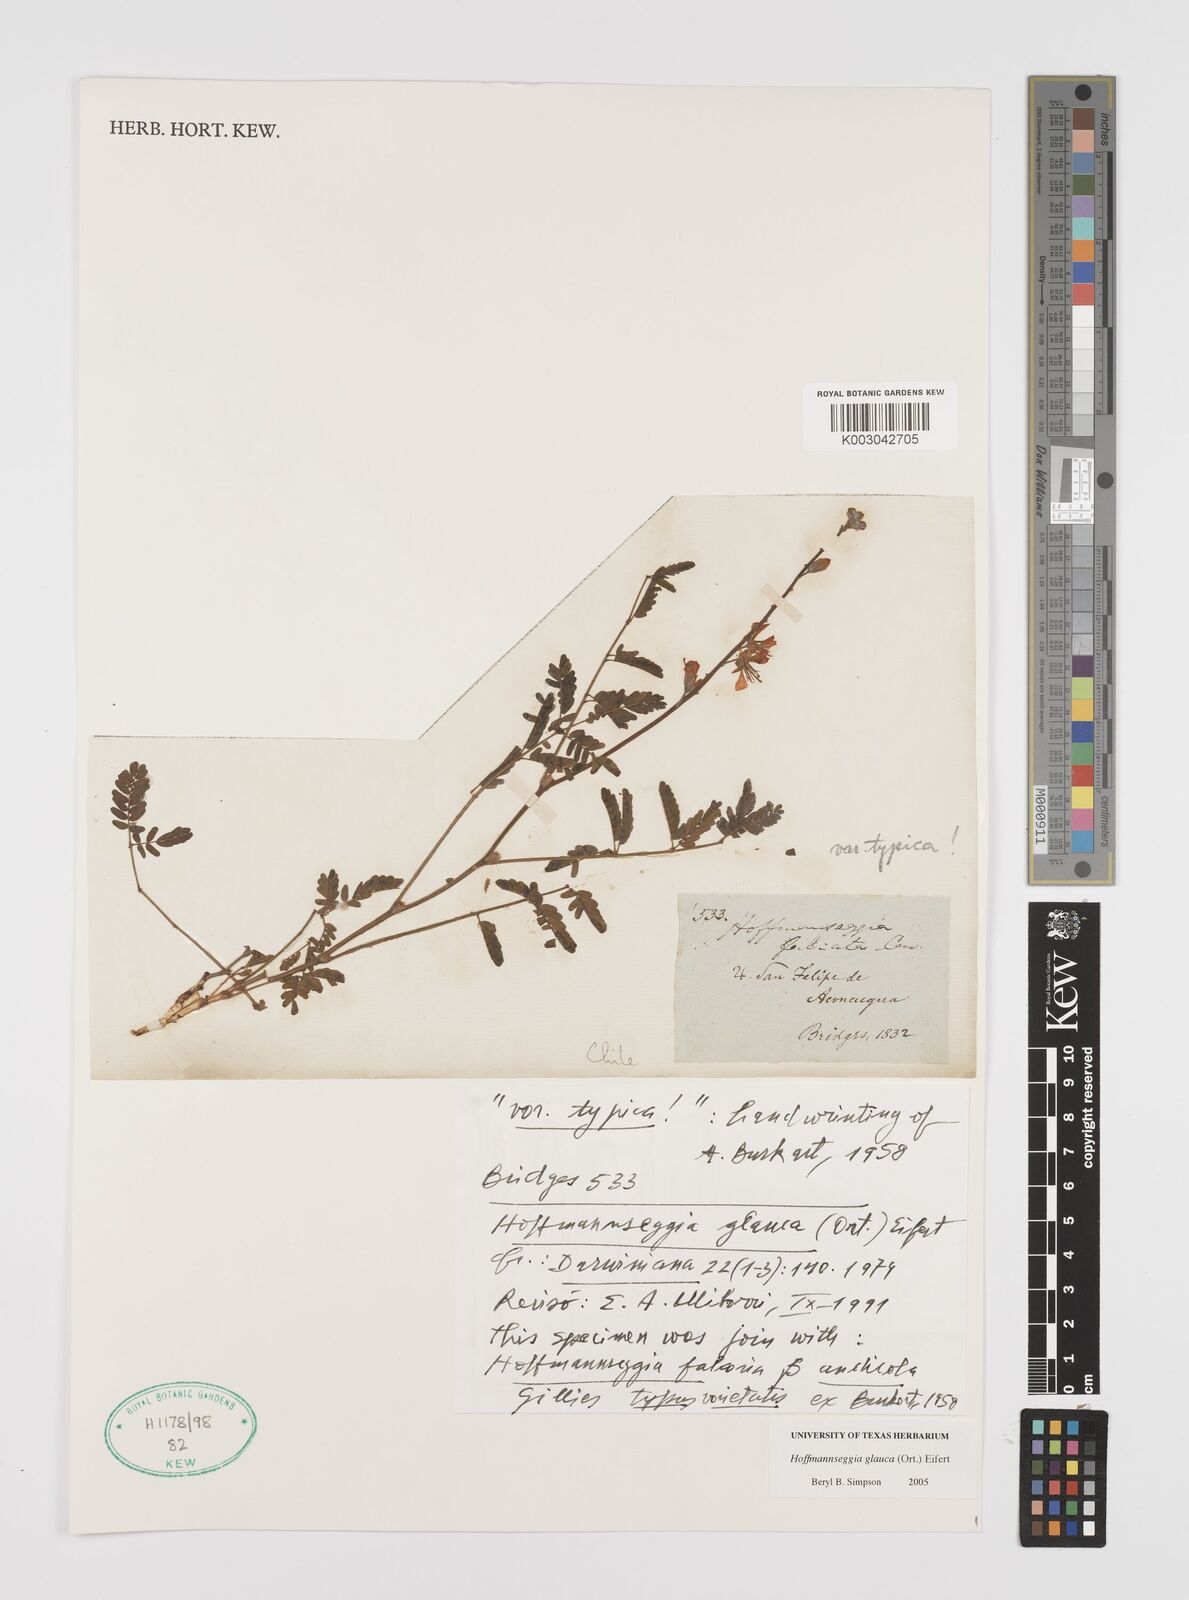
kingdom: Plantae
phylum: Tracheophyta
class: Magnoliopsida
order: Fabales
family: Fabaceae
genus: Hoffmannseggia
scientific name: Hoffmannseggia glauca
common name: Pignut
